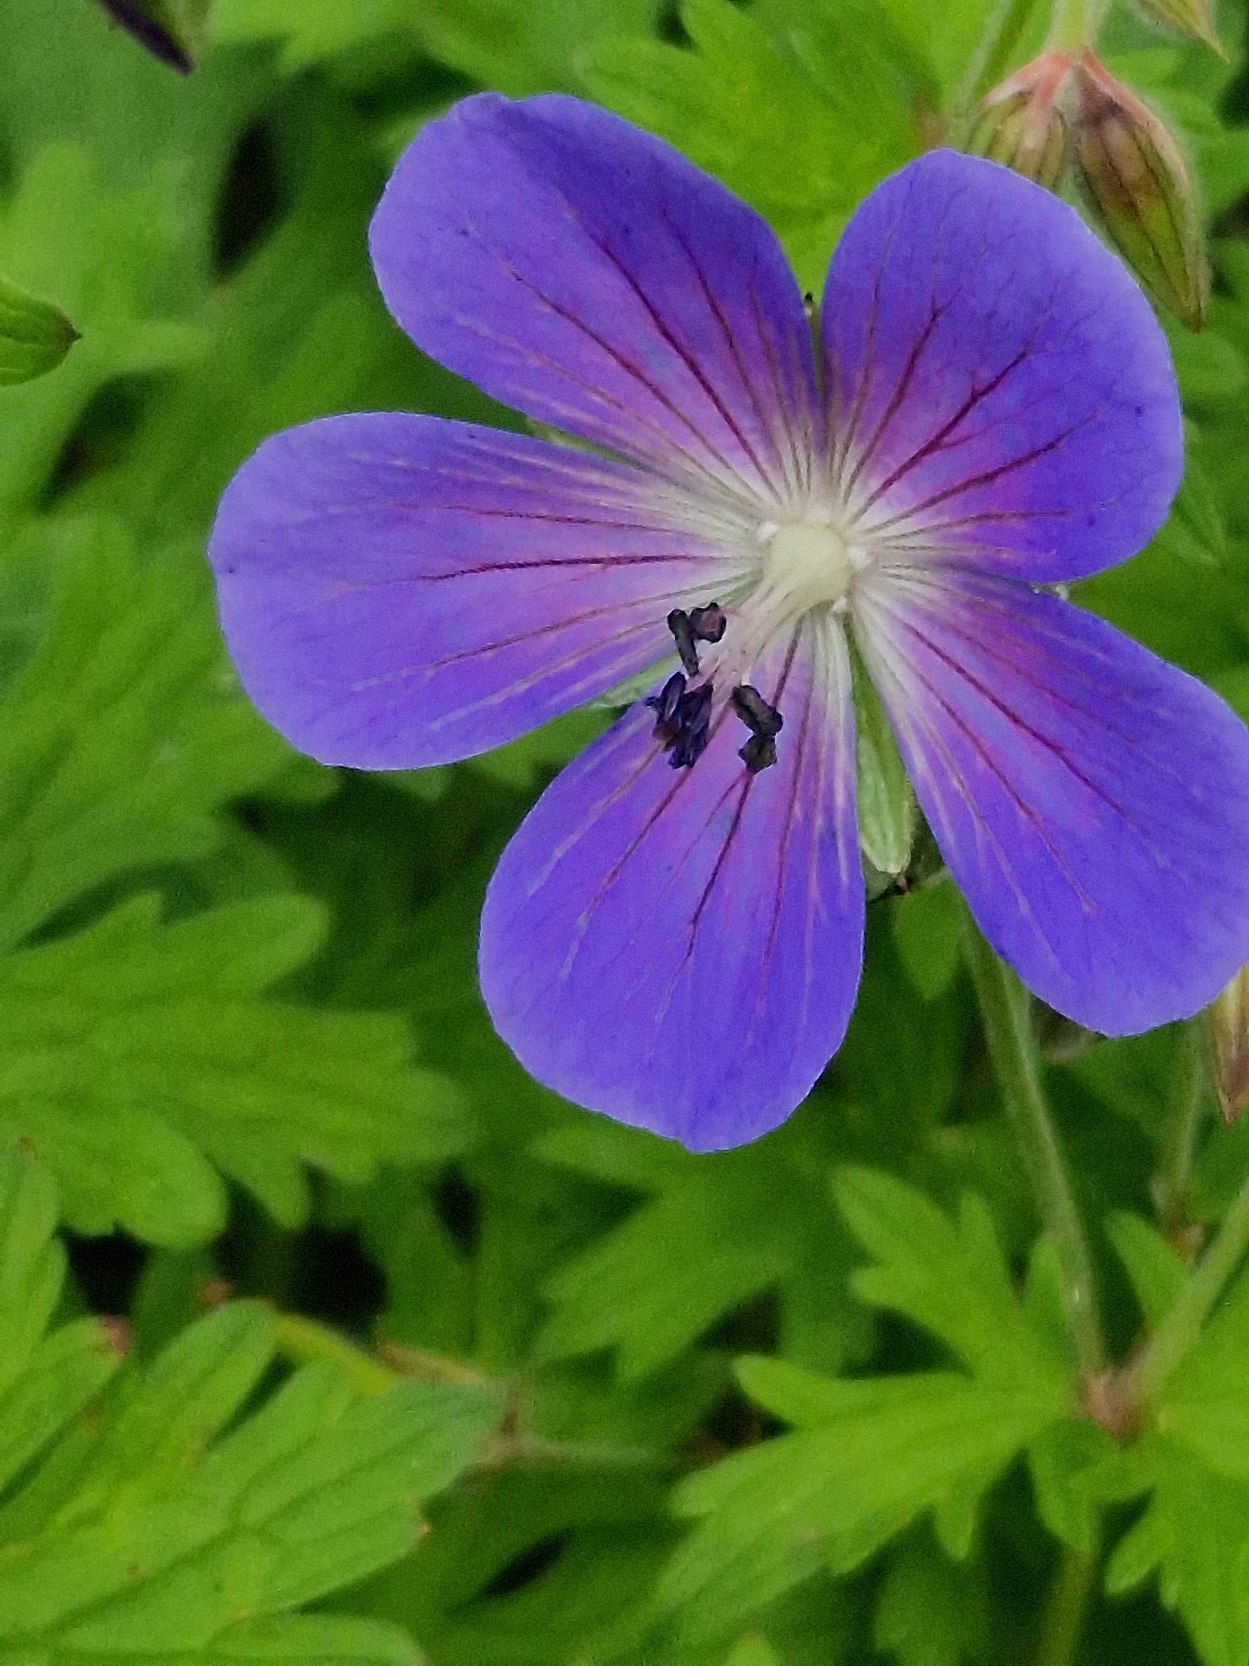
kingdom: Plantae
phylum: Tracheophyta
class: Magnoliopsida
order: Geraniales
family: Geraniaceae
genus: Geranium
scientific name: Geranium pratense
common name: Eng-storkenæb
